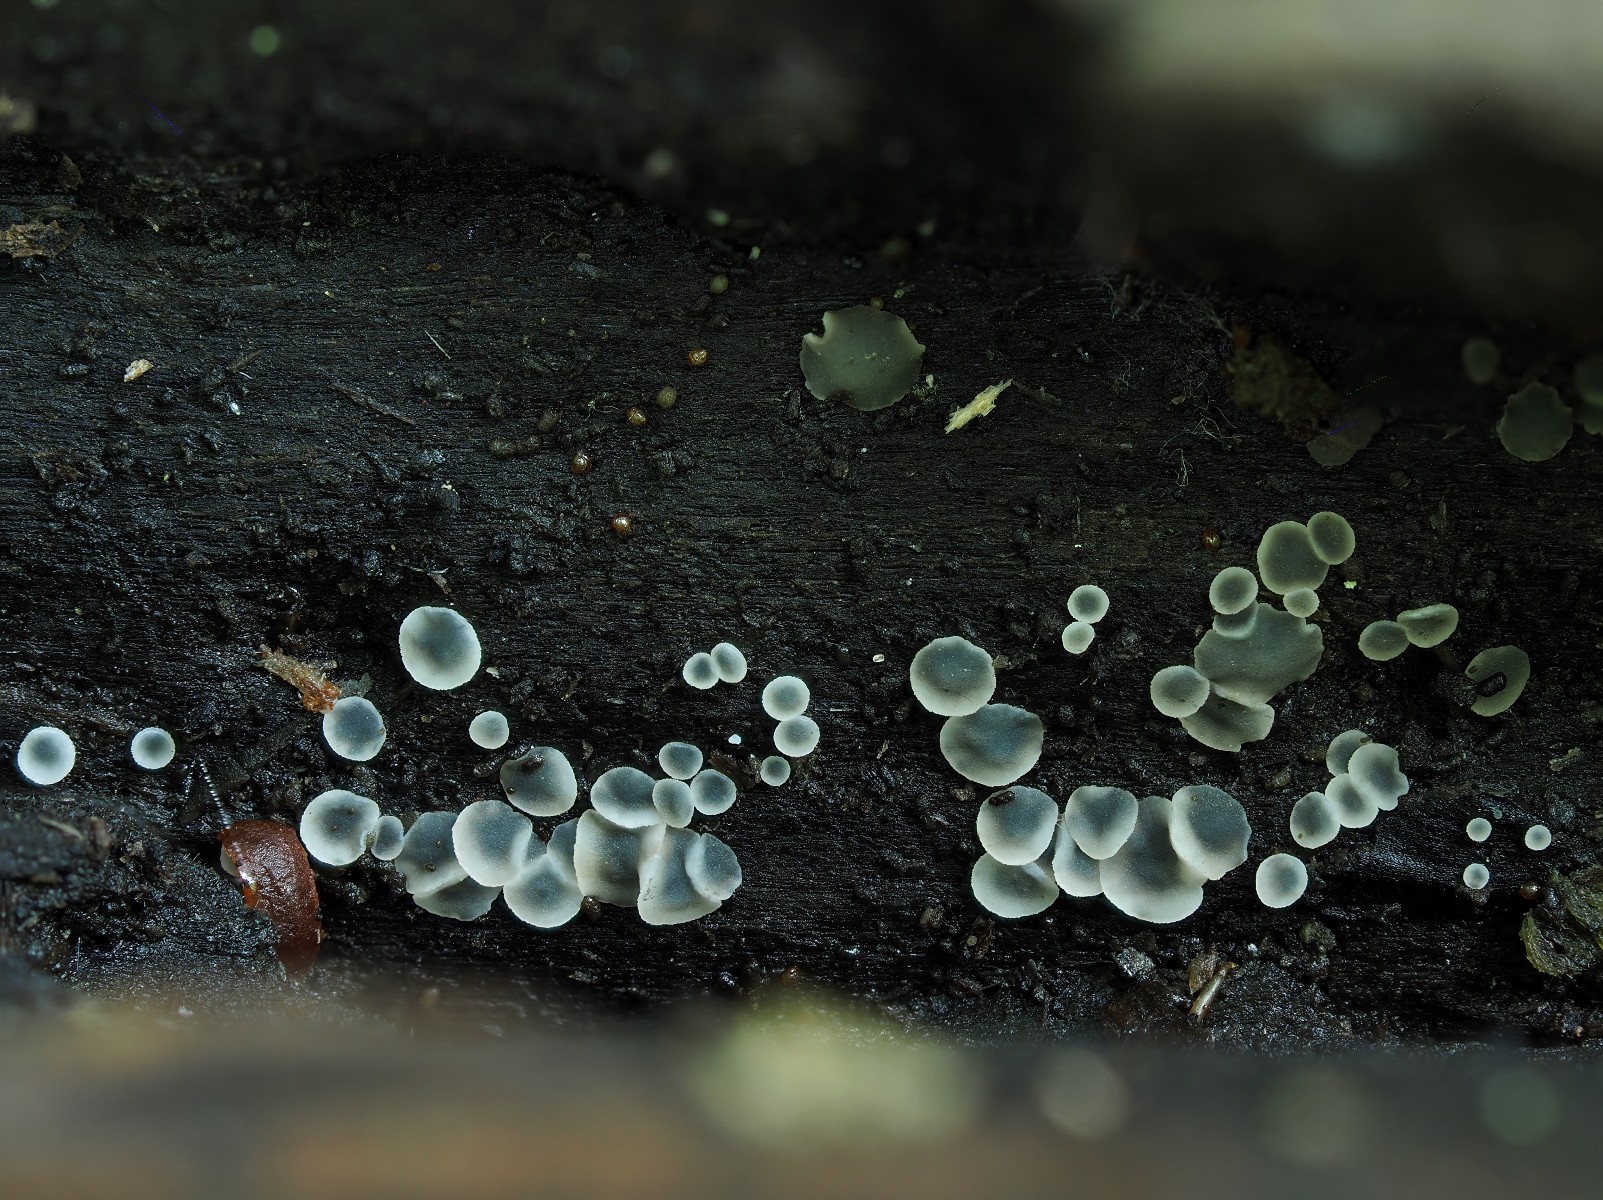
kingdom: Fungi
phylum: Ascomycota
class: Leotiomycetes
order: Helotiales
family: Mollisiaceae
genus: Mollisia
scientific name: Mollisia
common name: gråskive
